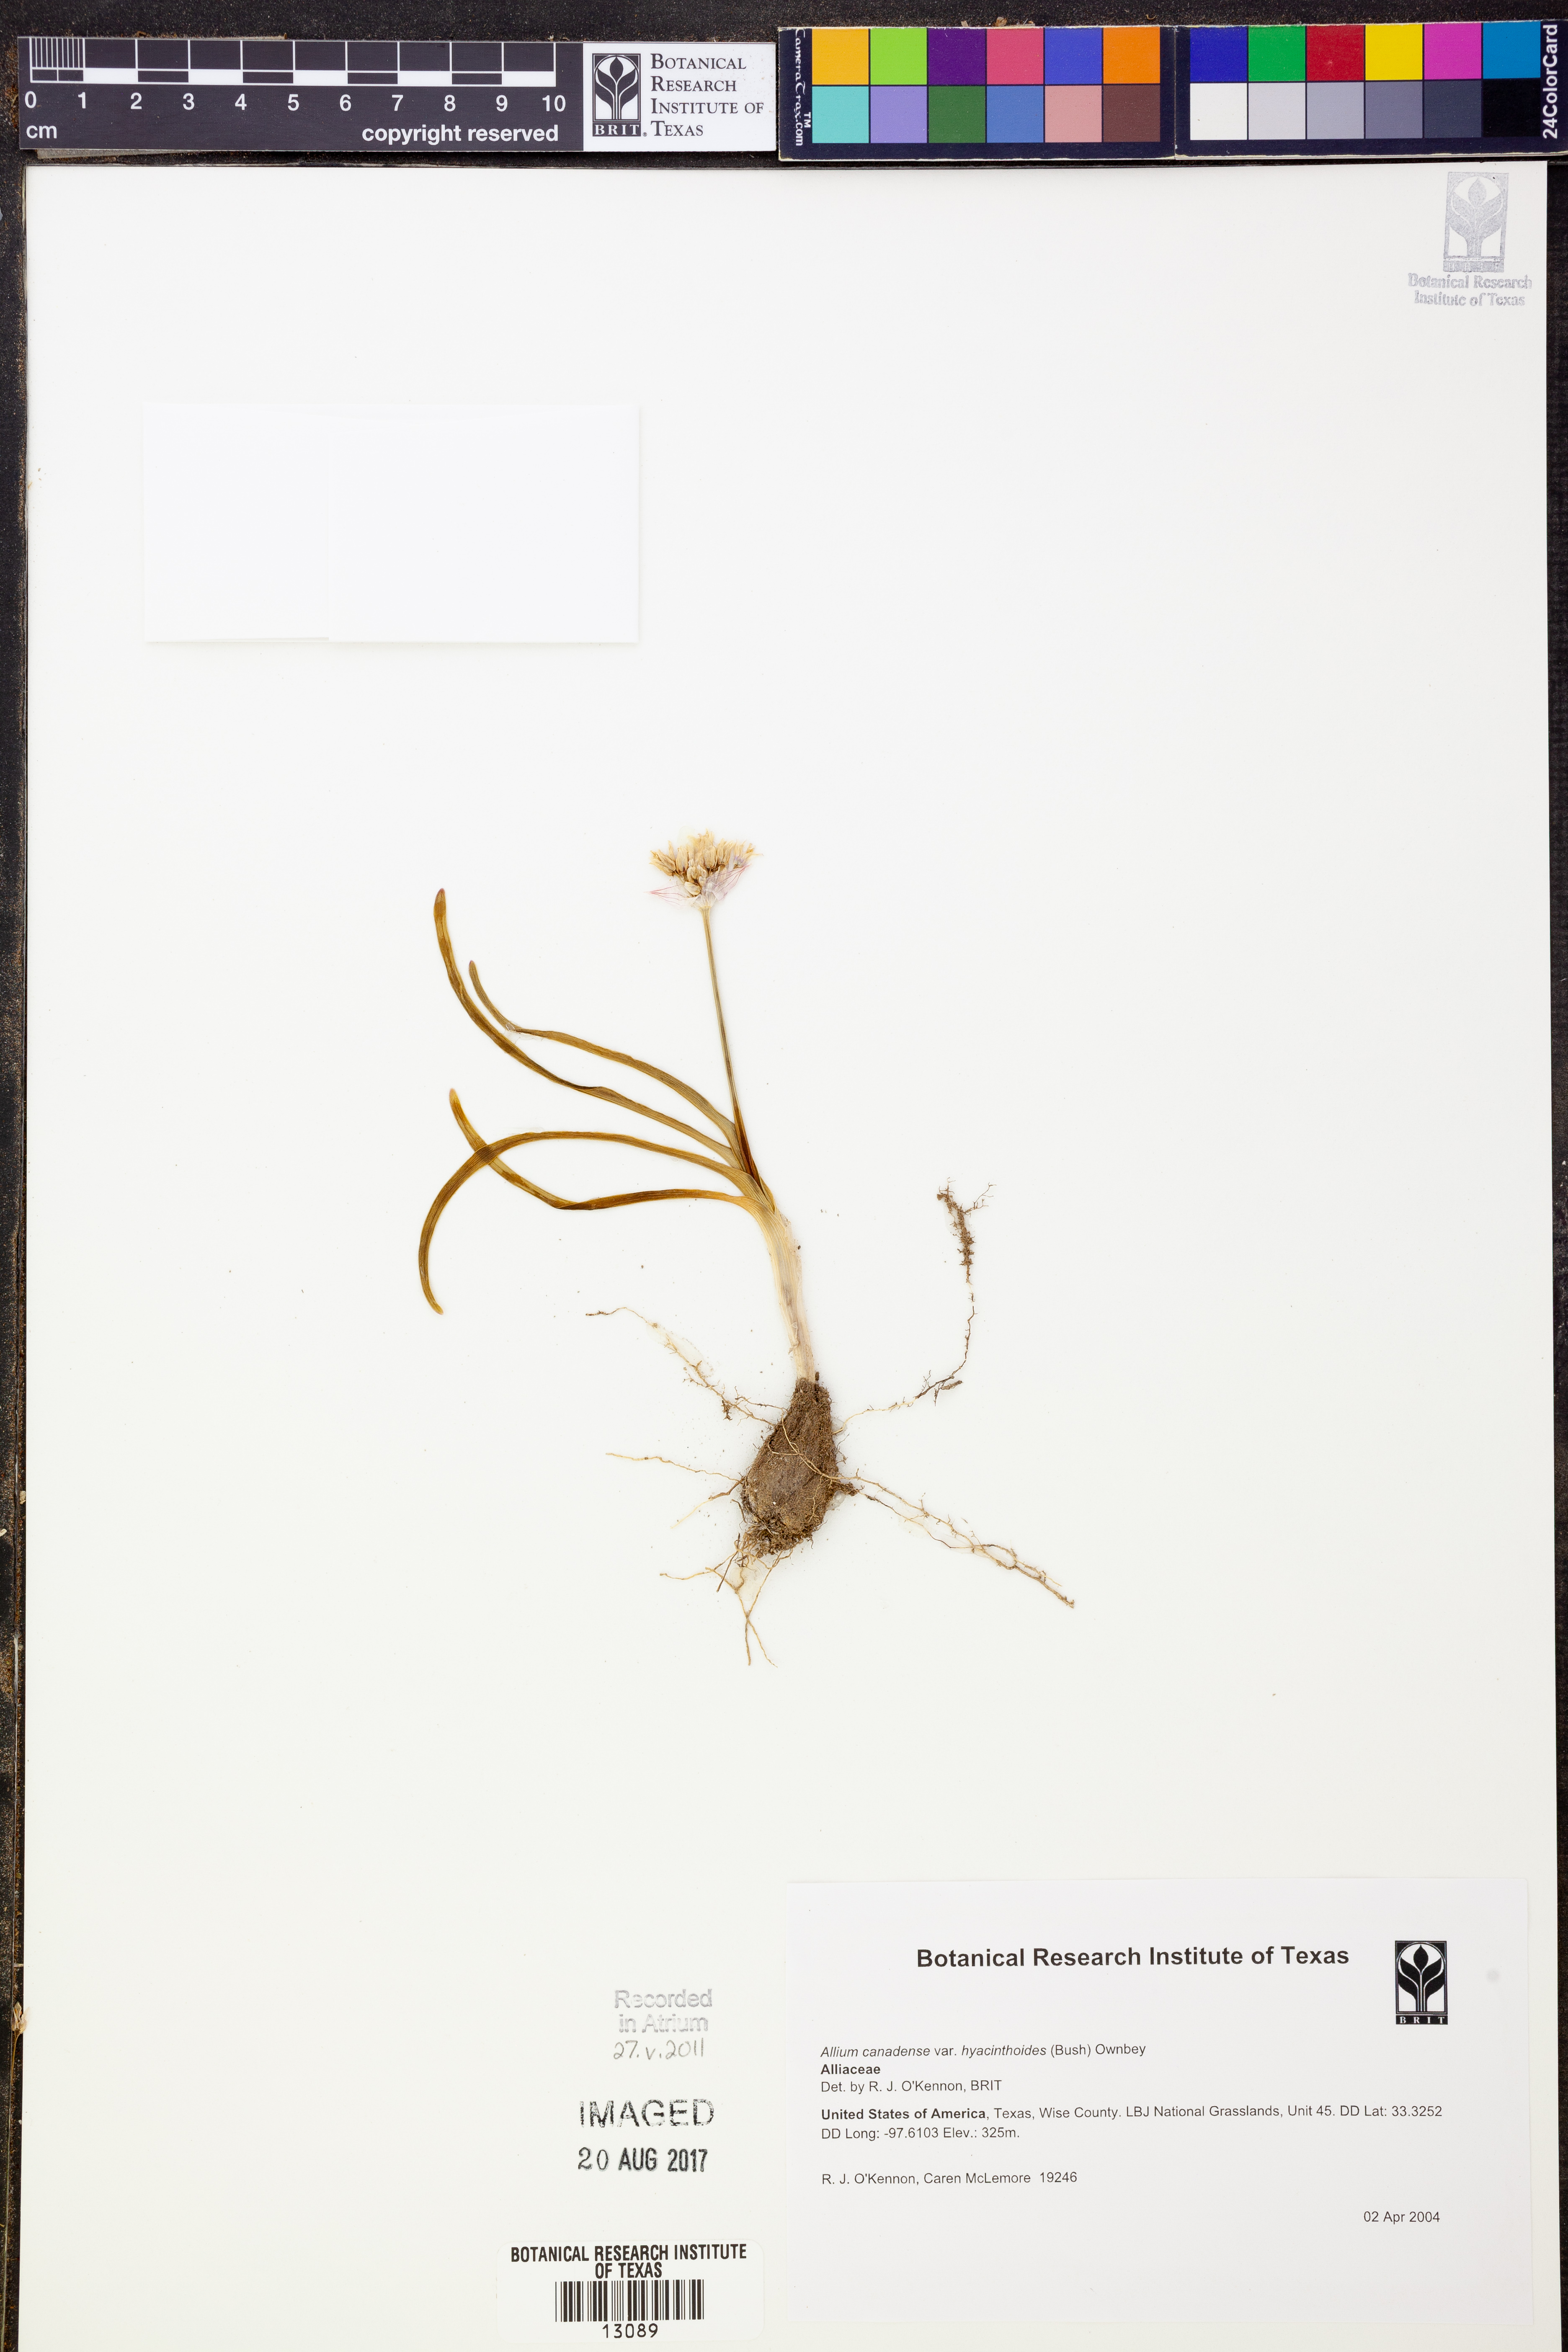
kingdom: Plantae
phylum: Tracheophyta
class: Liliopsida
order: Asparagales
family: Amaryllidaceae
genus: Allium
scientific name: Allium canadense
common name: Meadow garlic
